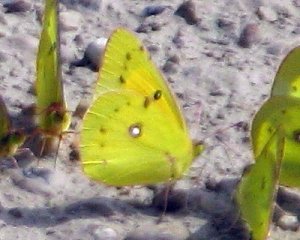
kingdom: Animalia
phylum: Arthropoda
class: Insecta
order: Lepidoptera
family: Pieridae
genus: Colias
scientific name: Colias eurytheme
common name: Orange Sulphur
